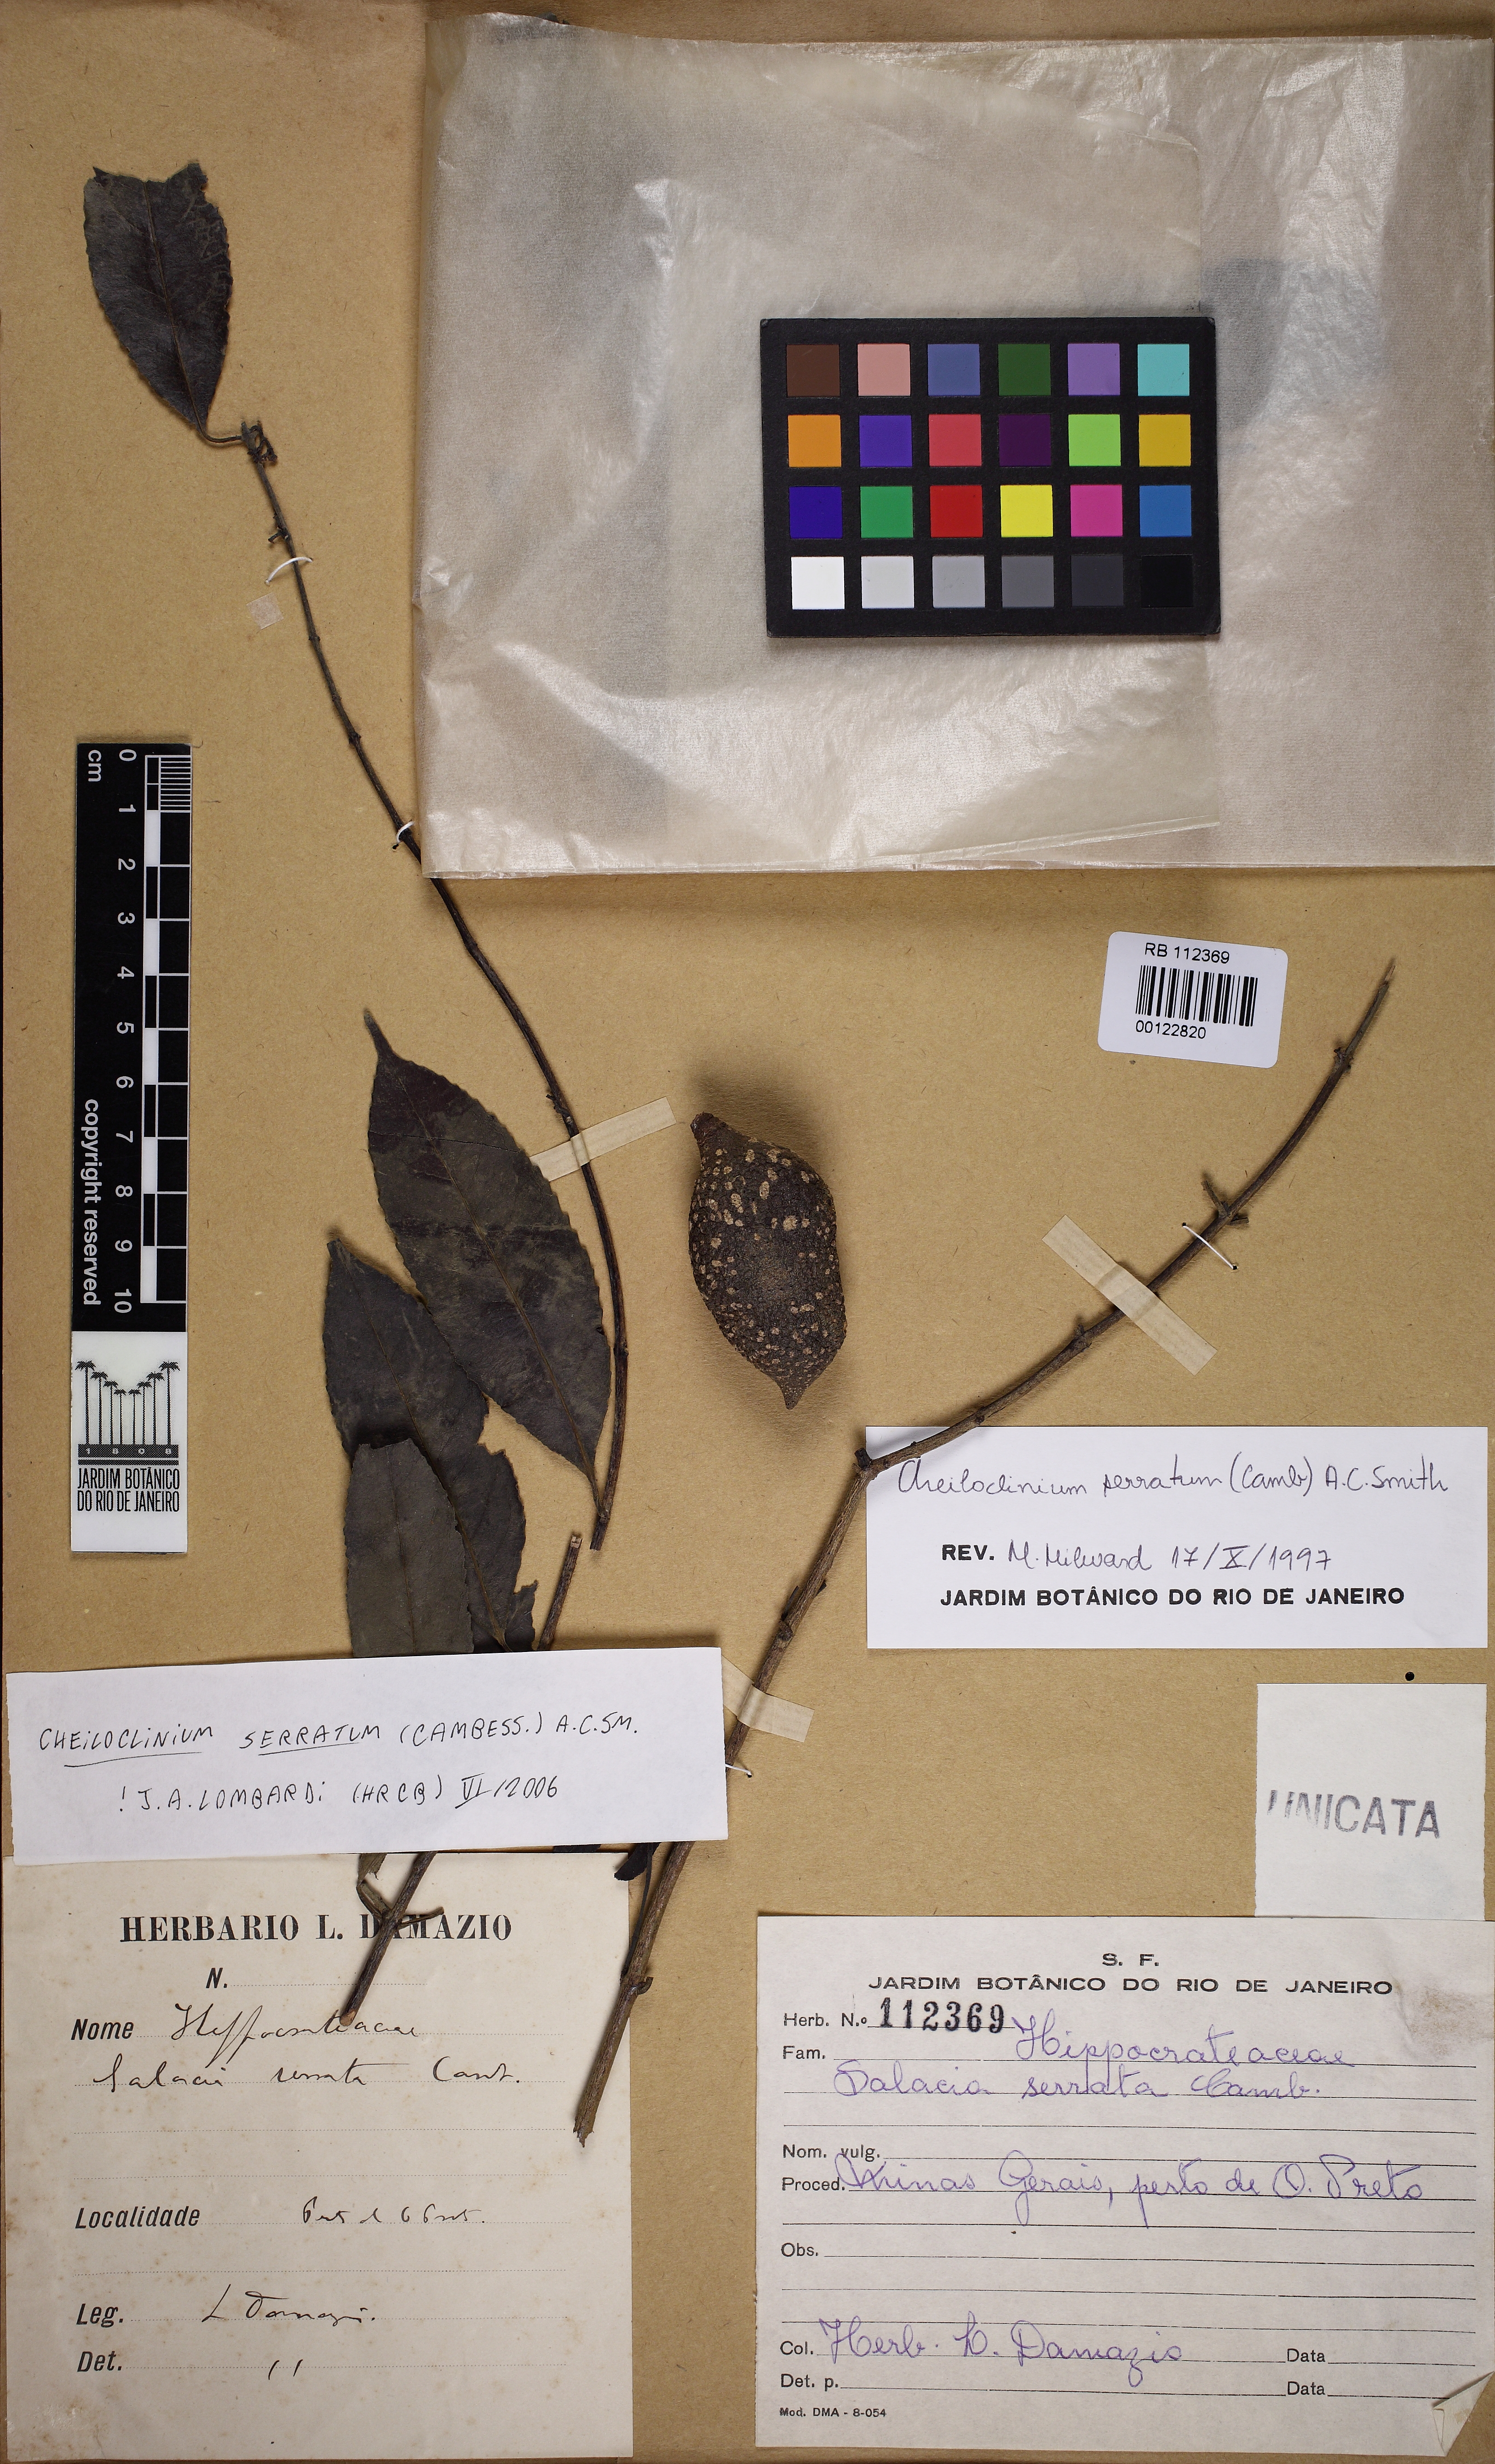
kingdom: Plantae
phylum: Tracheophyta
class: Magnoliopsida
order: Celastrales
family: Celastraceae
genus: Cheiloclinium
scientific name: Cheiloclinium serratum
